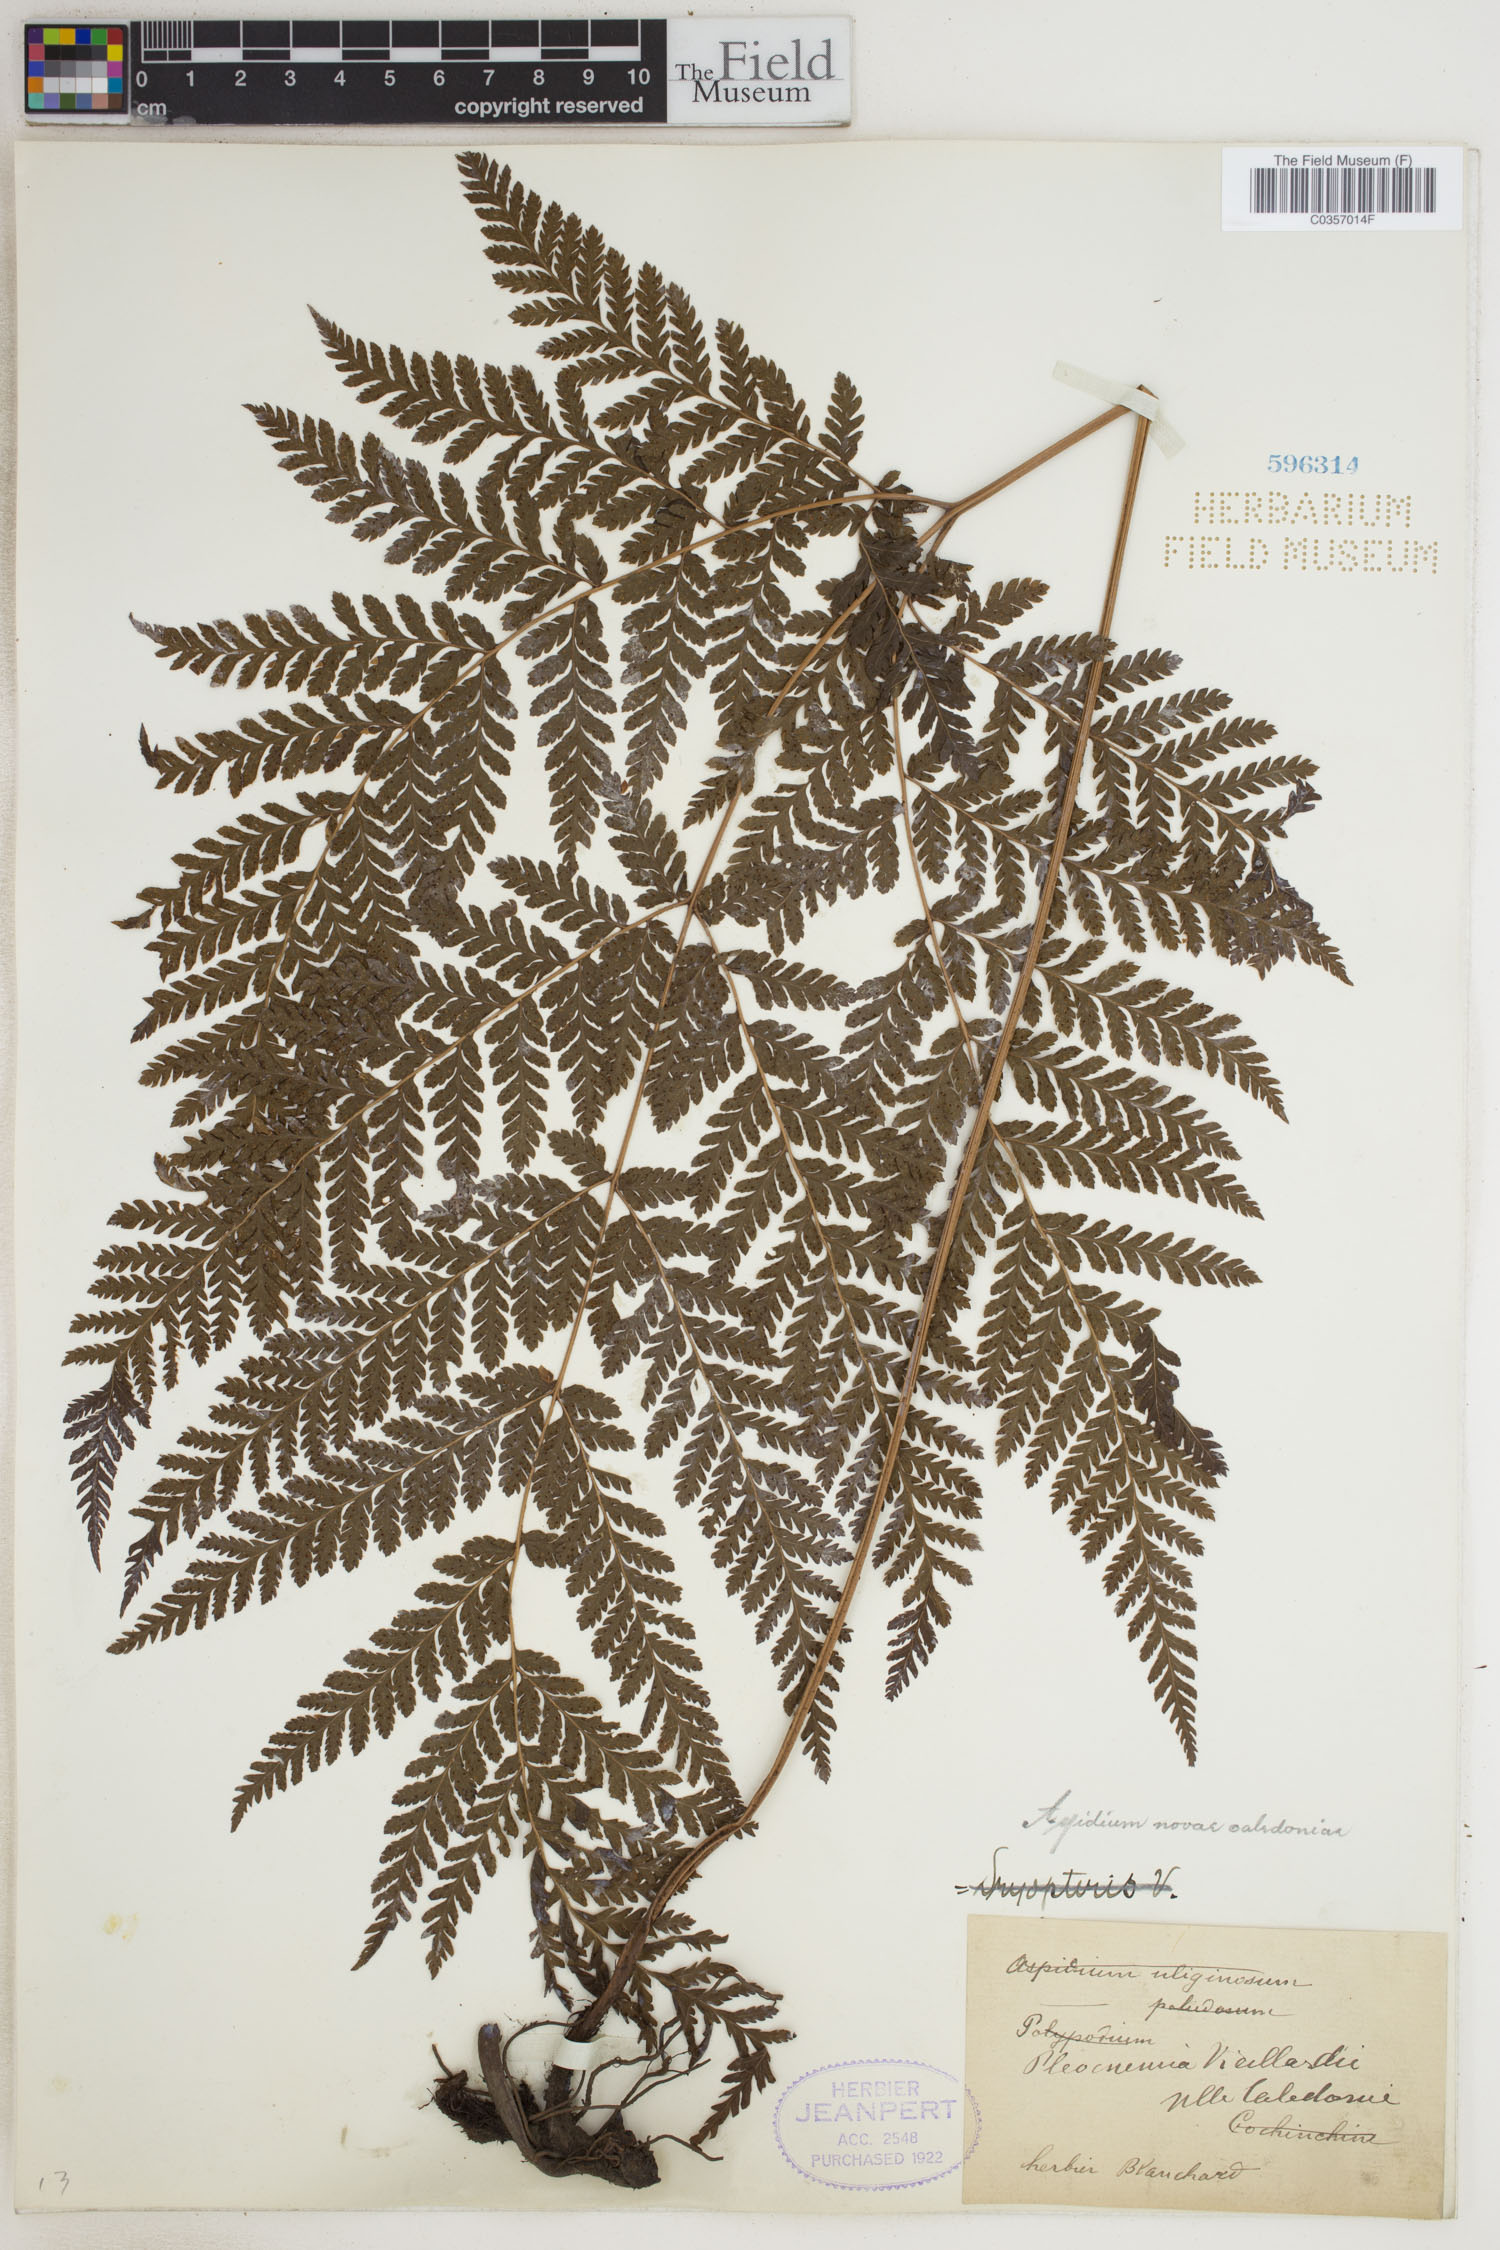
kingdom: Plantae
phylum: Tracheophyta
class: Polypodiopsida
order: Polypodiales
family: Tectariaceae
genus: Tectaria
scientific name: Tectaria vieillardii
